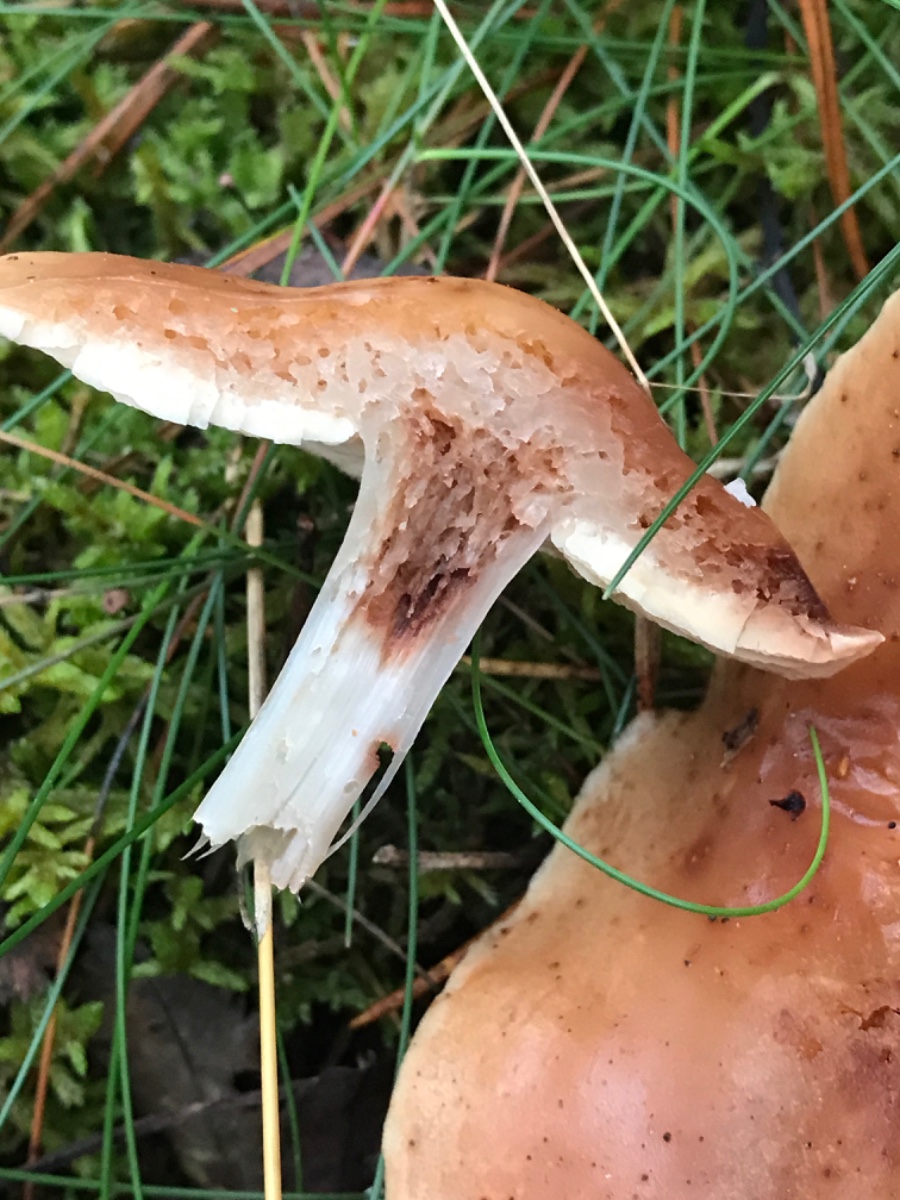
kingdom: Fungi
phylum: Basidiomycota
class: Agaricomycetes
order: Agaricales
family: Omphalotaceae
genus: Rhodocollybia
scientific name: Rhodocollybia maculata
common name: plettet fladhat
